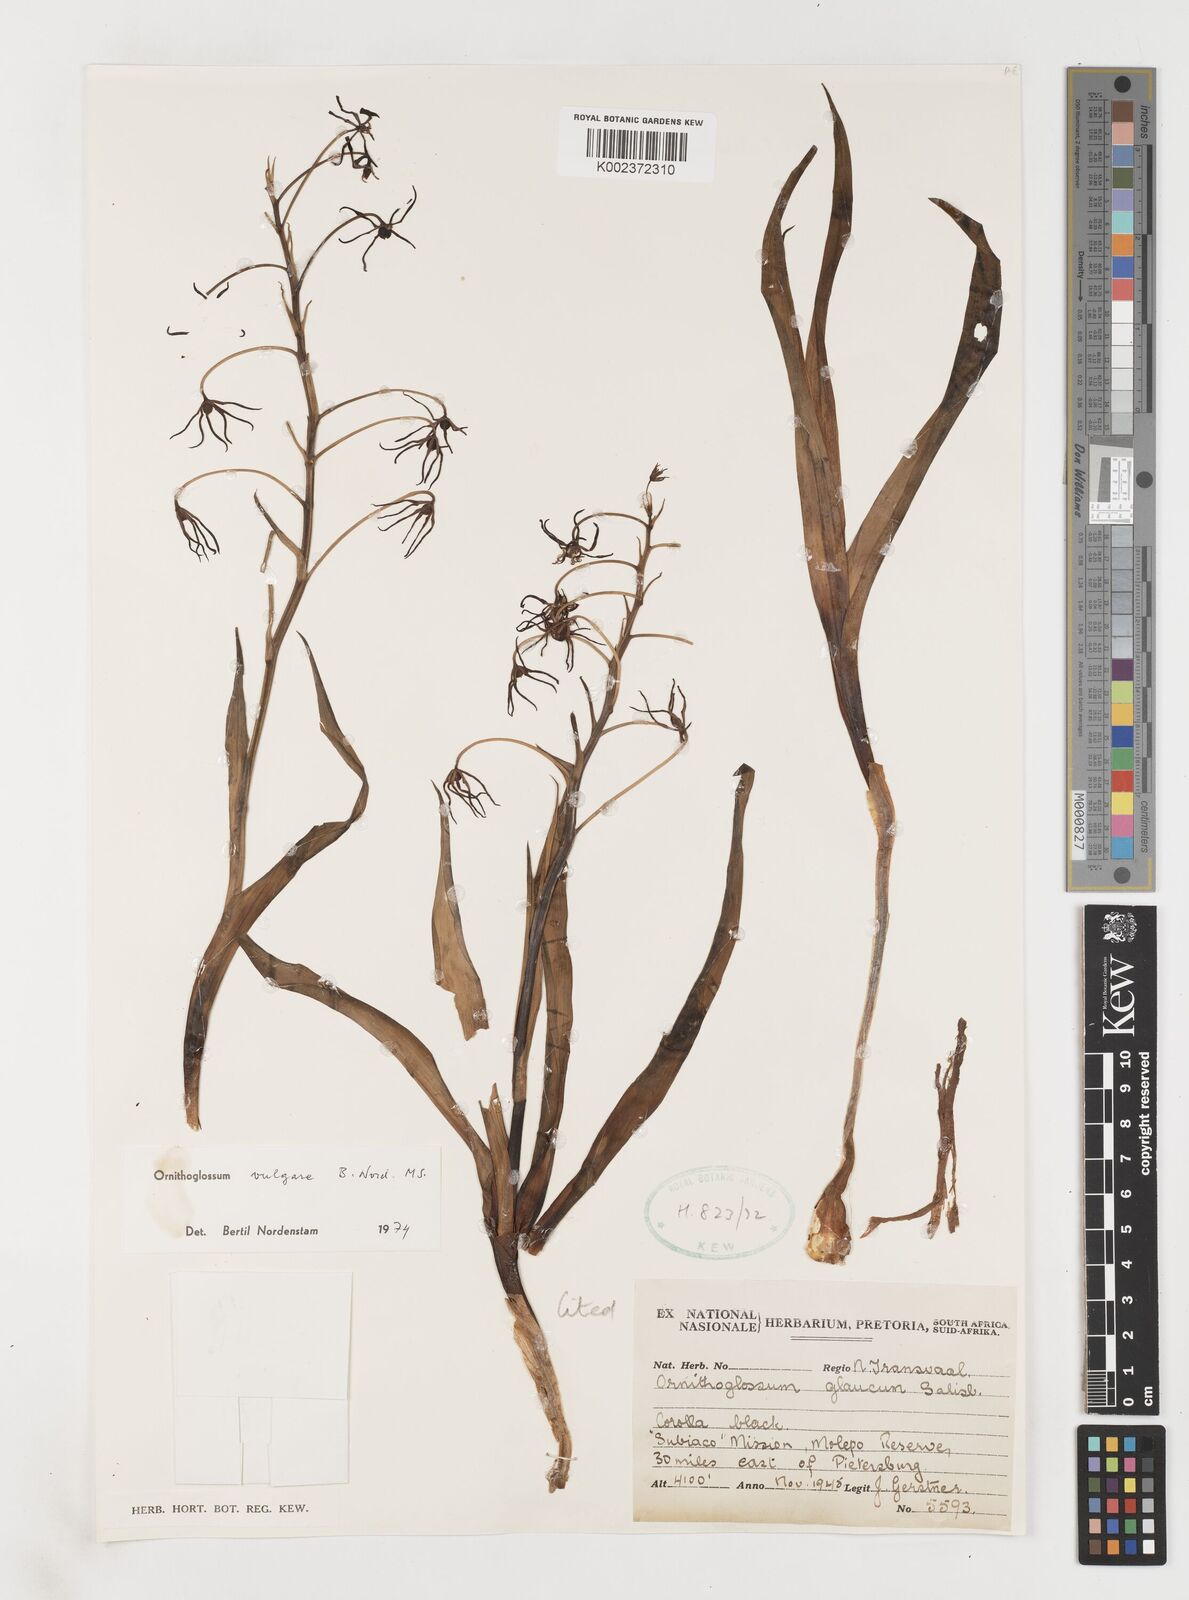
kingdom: Plantae
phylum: Tracheophyta
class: Liliopsida
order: Liliales
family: Colchicaceae
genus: Ornithoglossum
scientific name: Ornithoglossum vulgare
